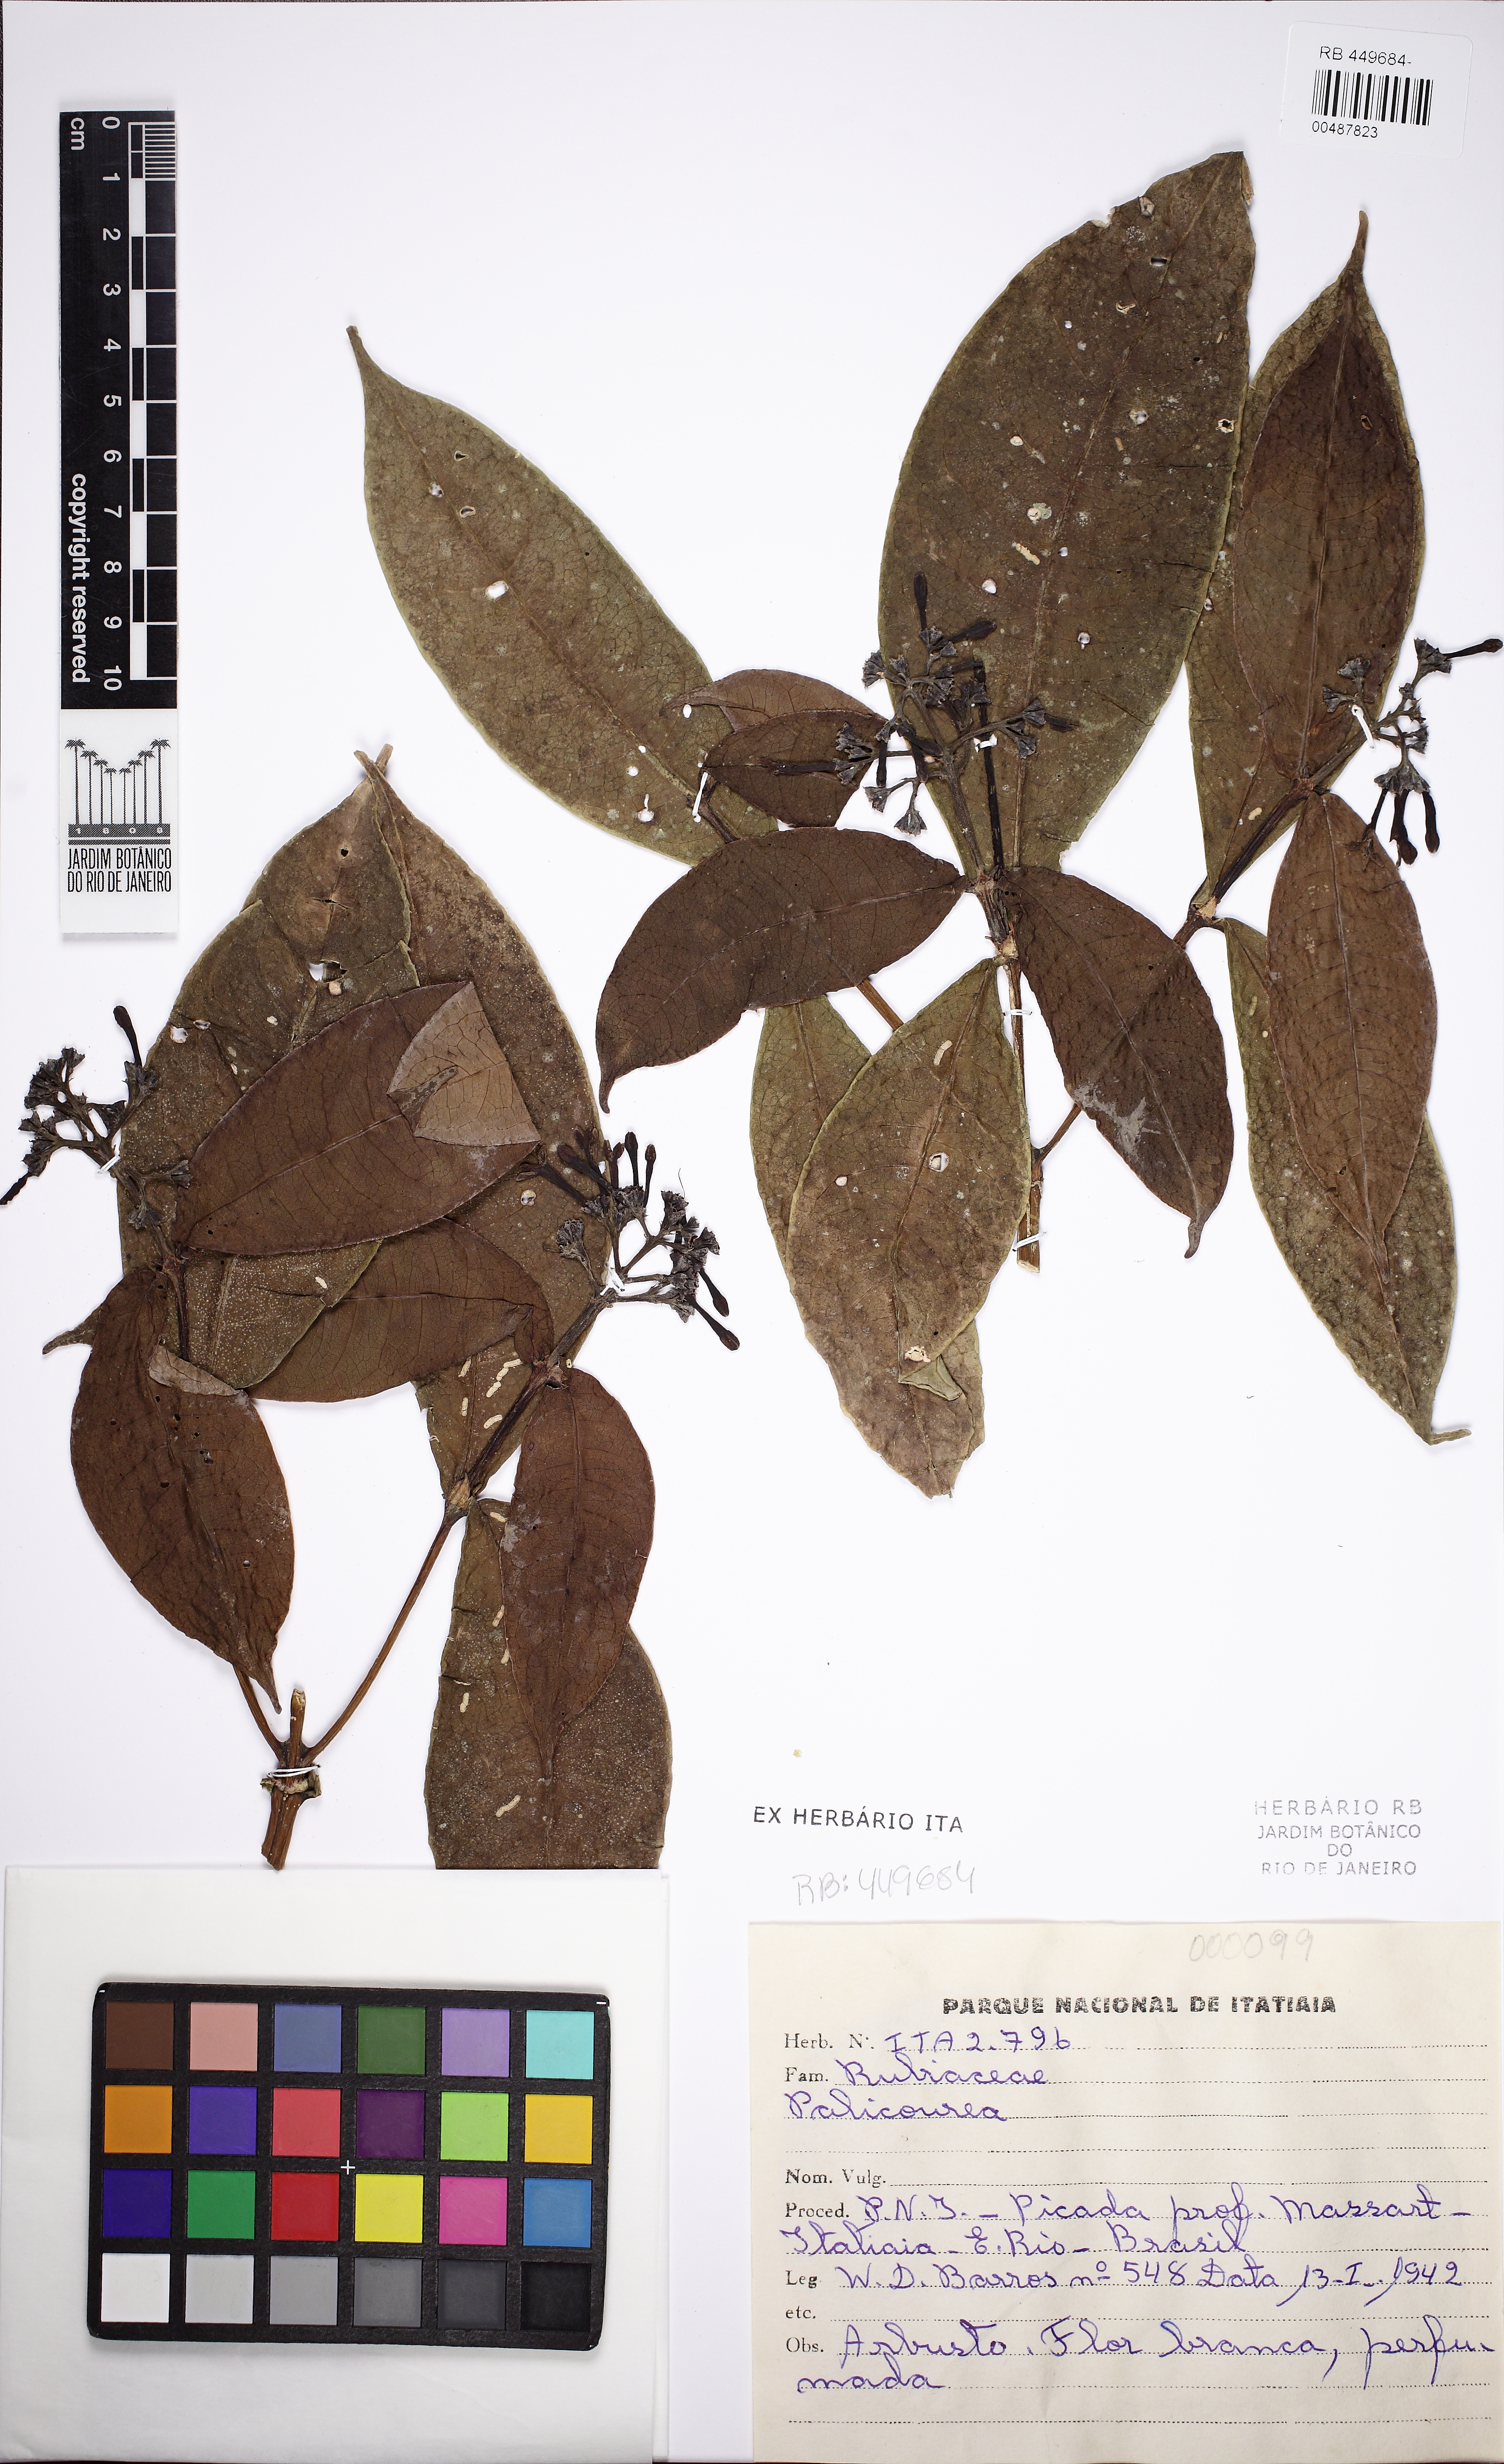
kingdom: Plantae
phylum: Tracheophyta
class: Magnoliopsida
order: Gentianales
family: Rubiaceae
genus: Coussarea
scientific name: Coussarea strigosipes
